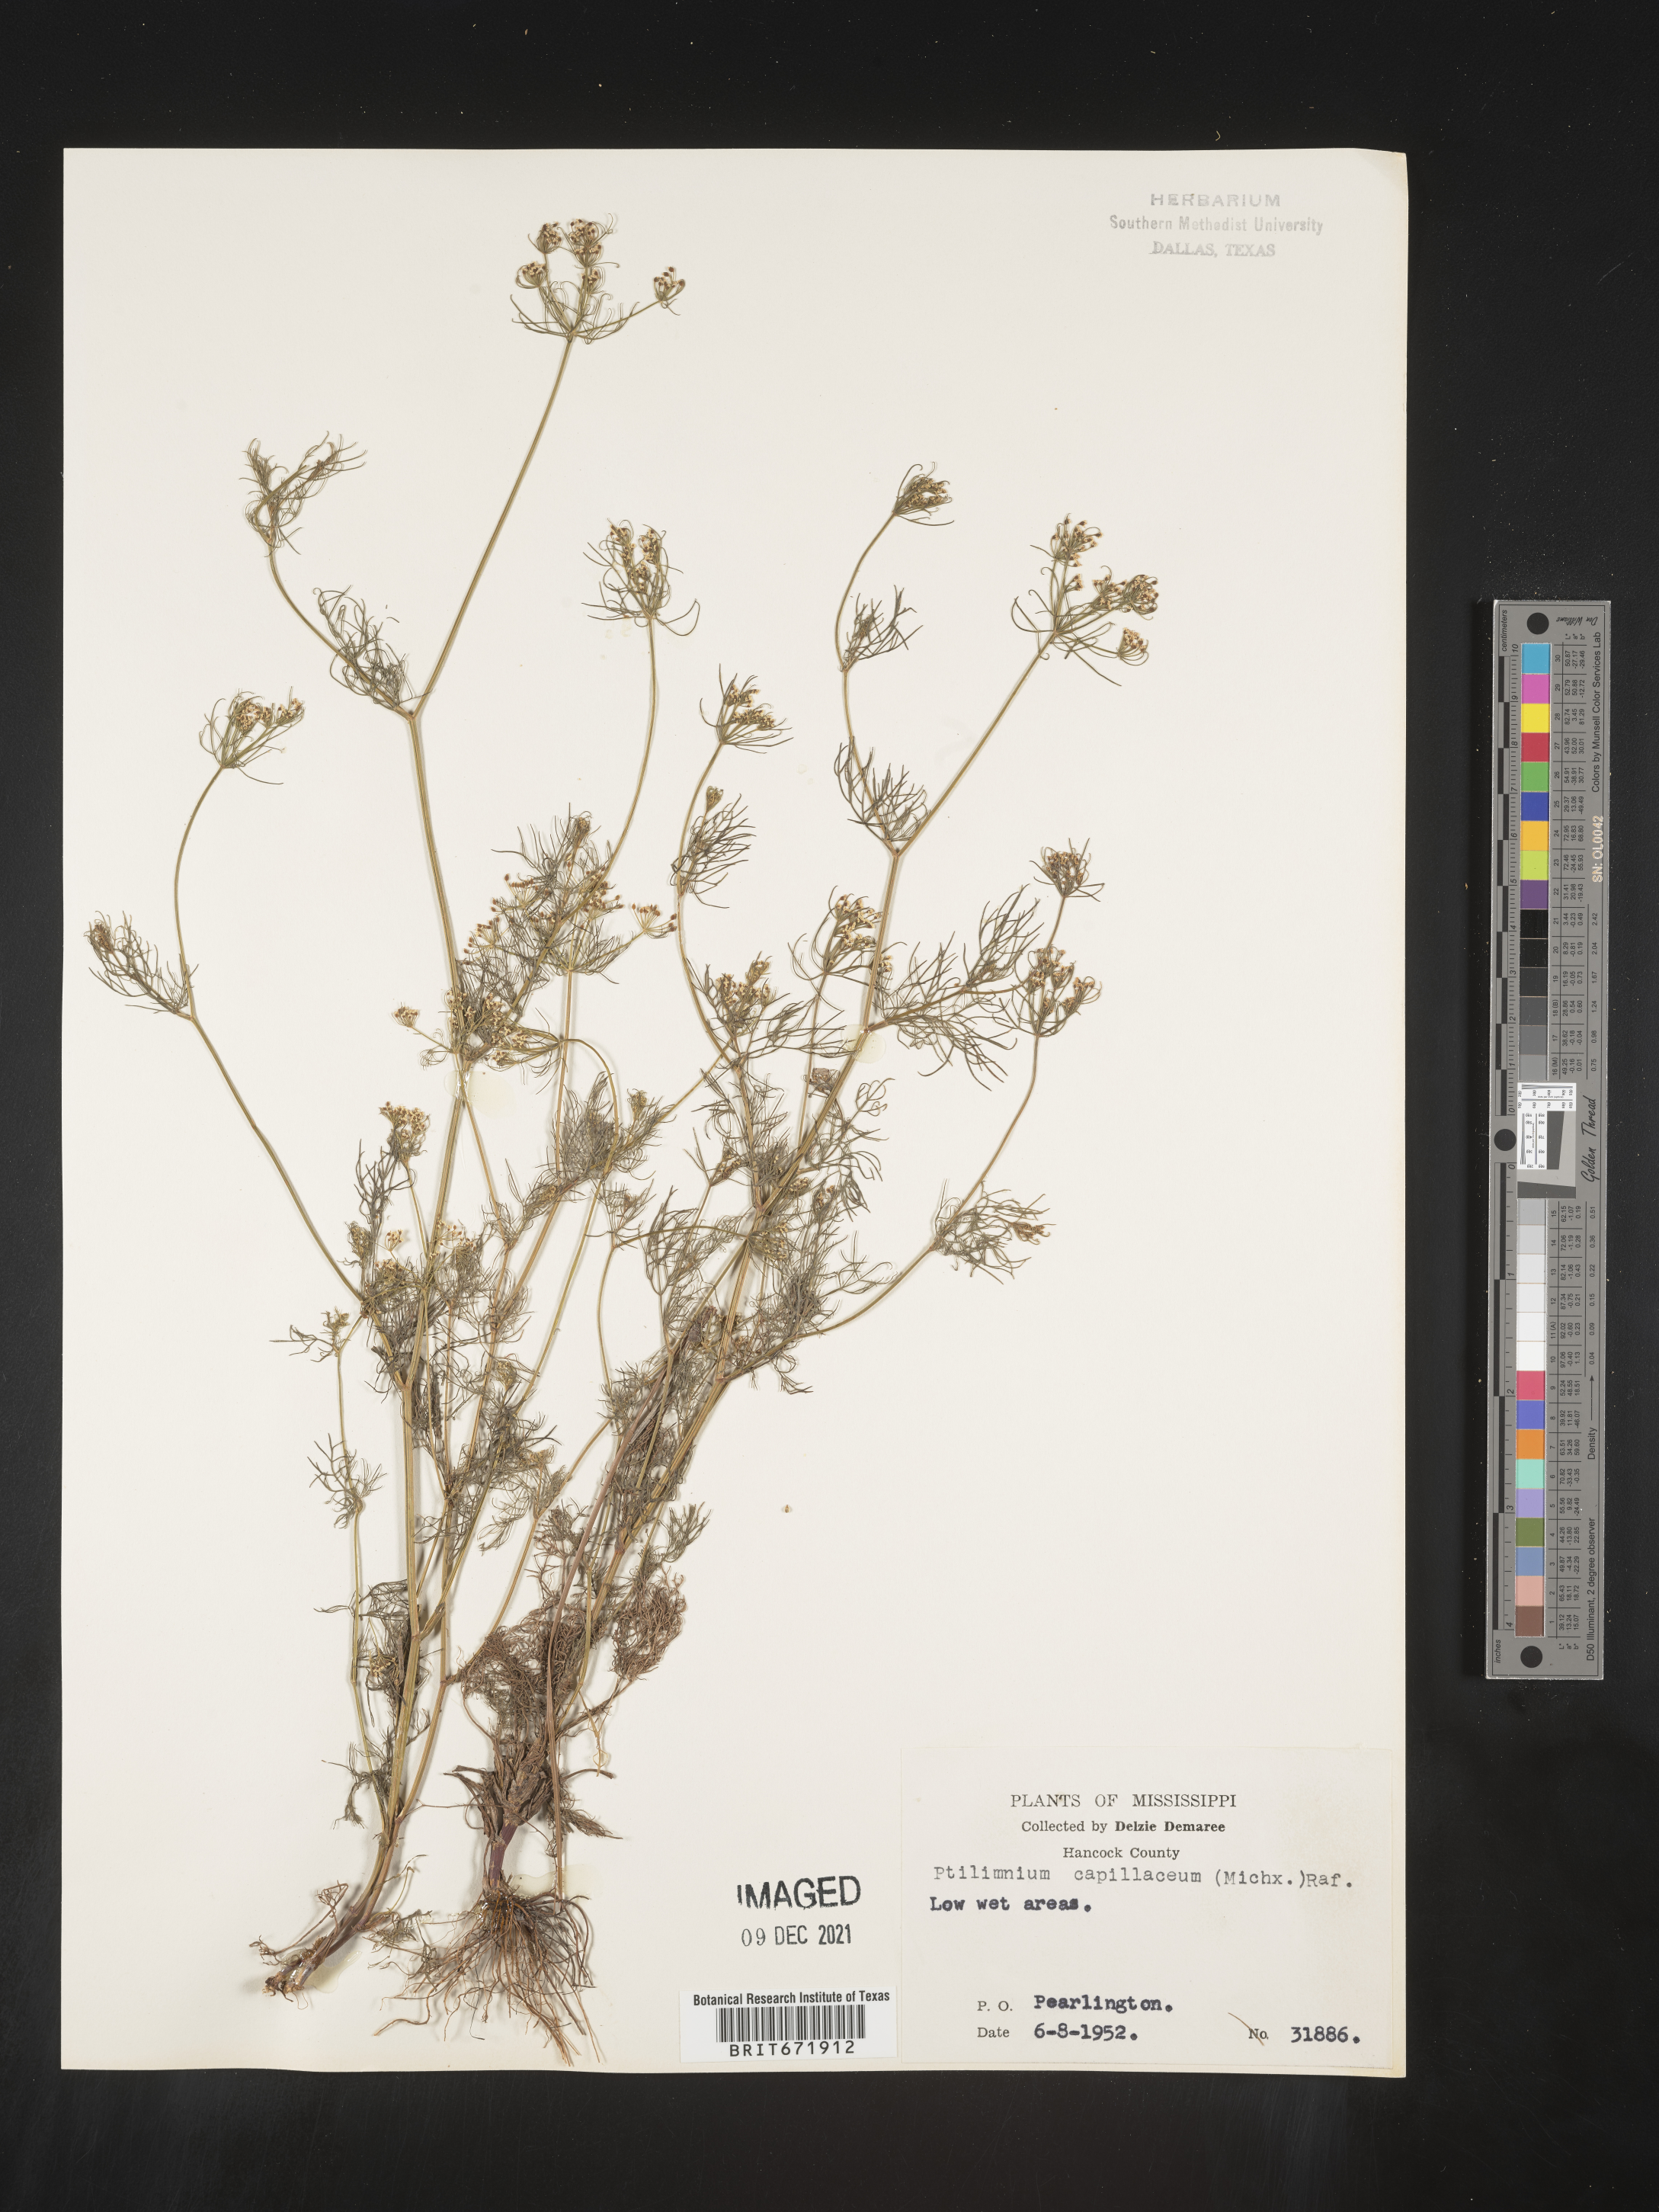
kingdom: Plantae
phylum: Tracheophyta
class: Magnoliopsida
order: Apiales
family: Apiaceae
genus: Ptilimnium
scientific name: Ptilimnium capillaceum
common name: Herbwilliam
